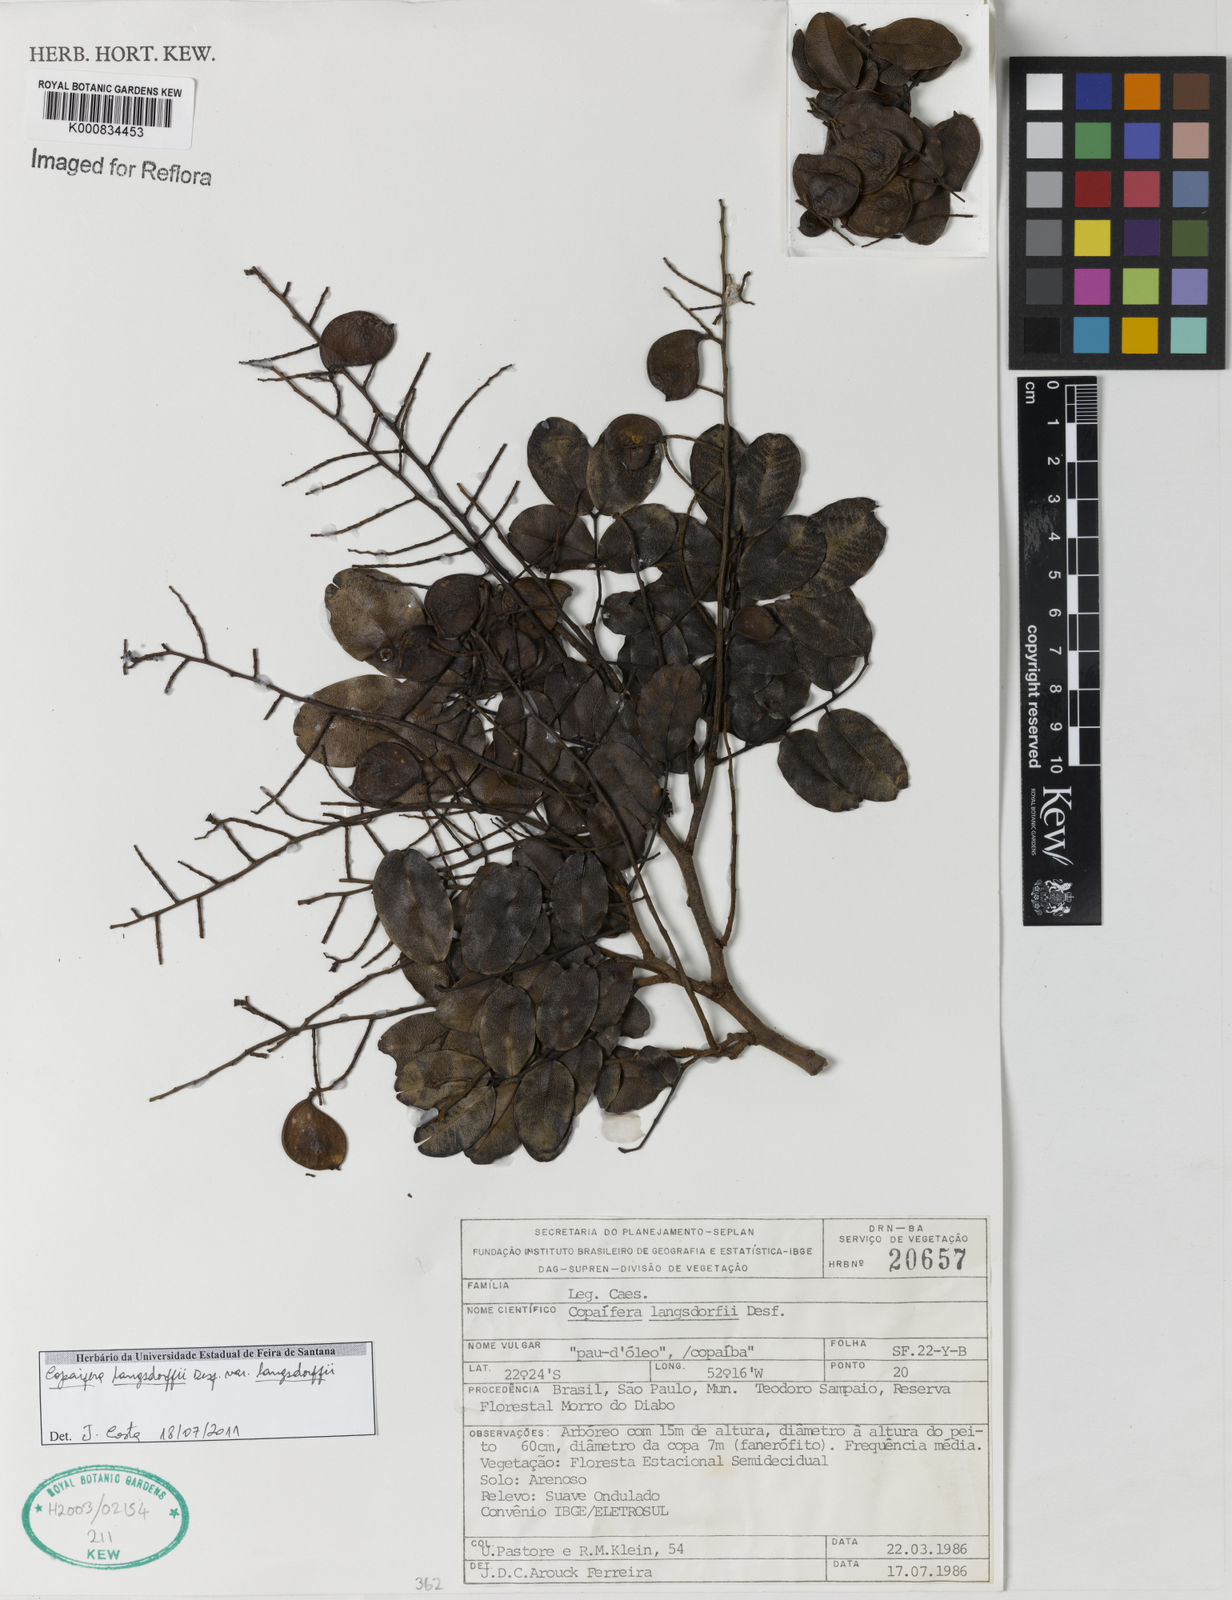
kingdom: Plantae
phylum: Tracheophyta
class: Magnoliopsida
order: Fabales
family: Fabaceae
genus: Copaifera
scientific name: Copaifera langsdorffii
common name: Brazilian diesel tree
